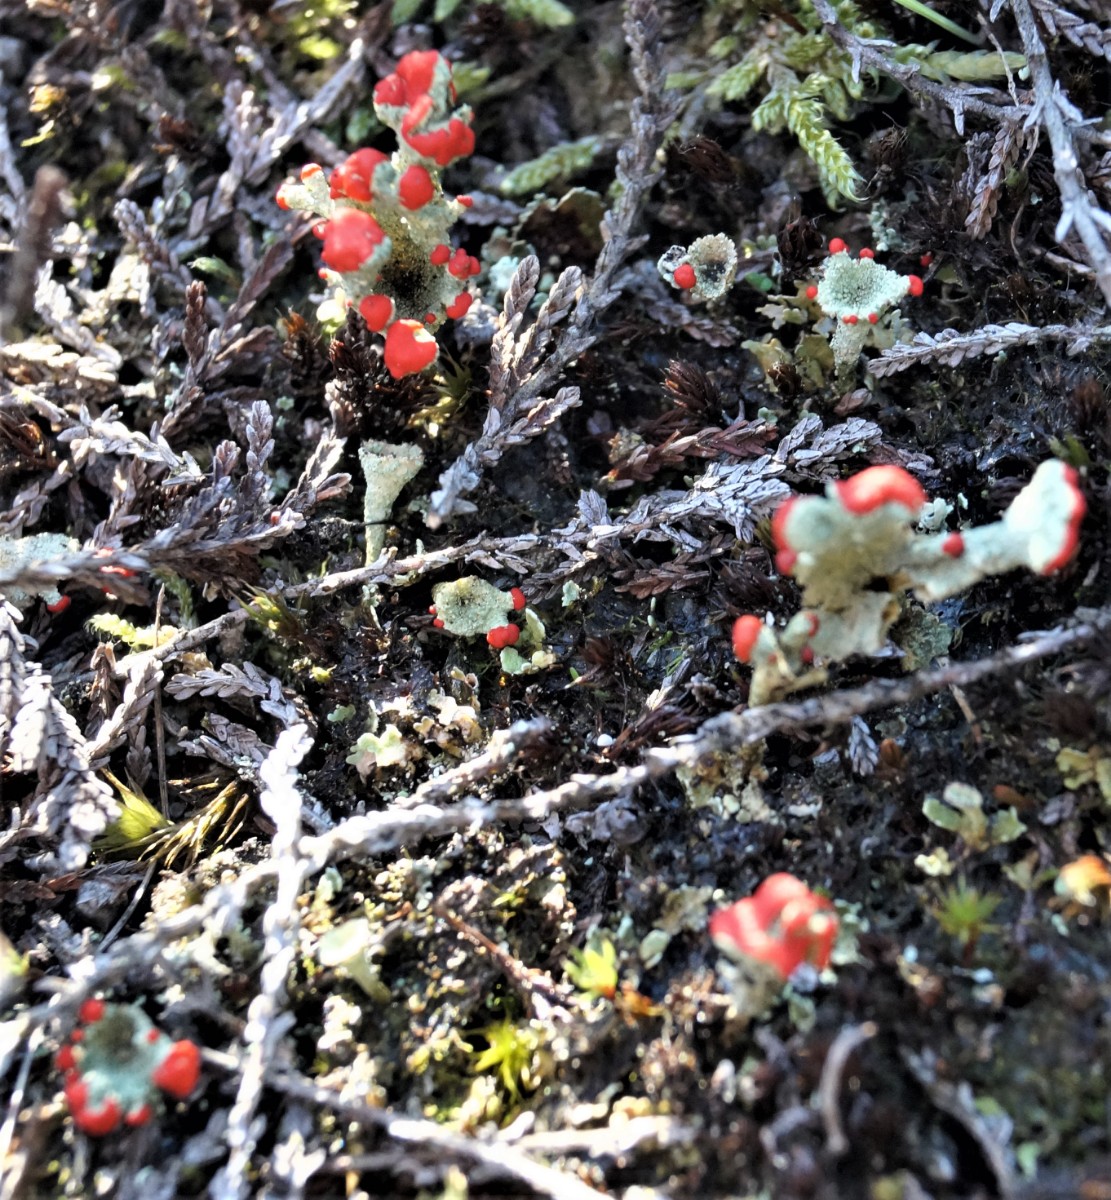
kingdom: Fungi
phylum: Ascomycota
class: Lecanoromycetes
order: Lecanorales
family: Cladoniaceae
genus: Cladonia
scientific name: Cladonia diversa
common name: rød bægerlav
